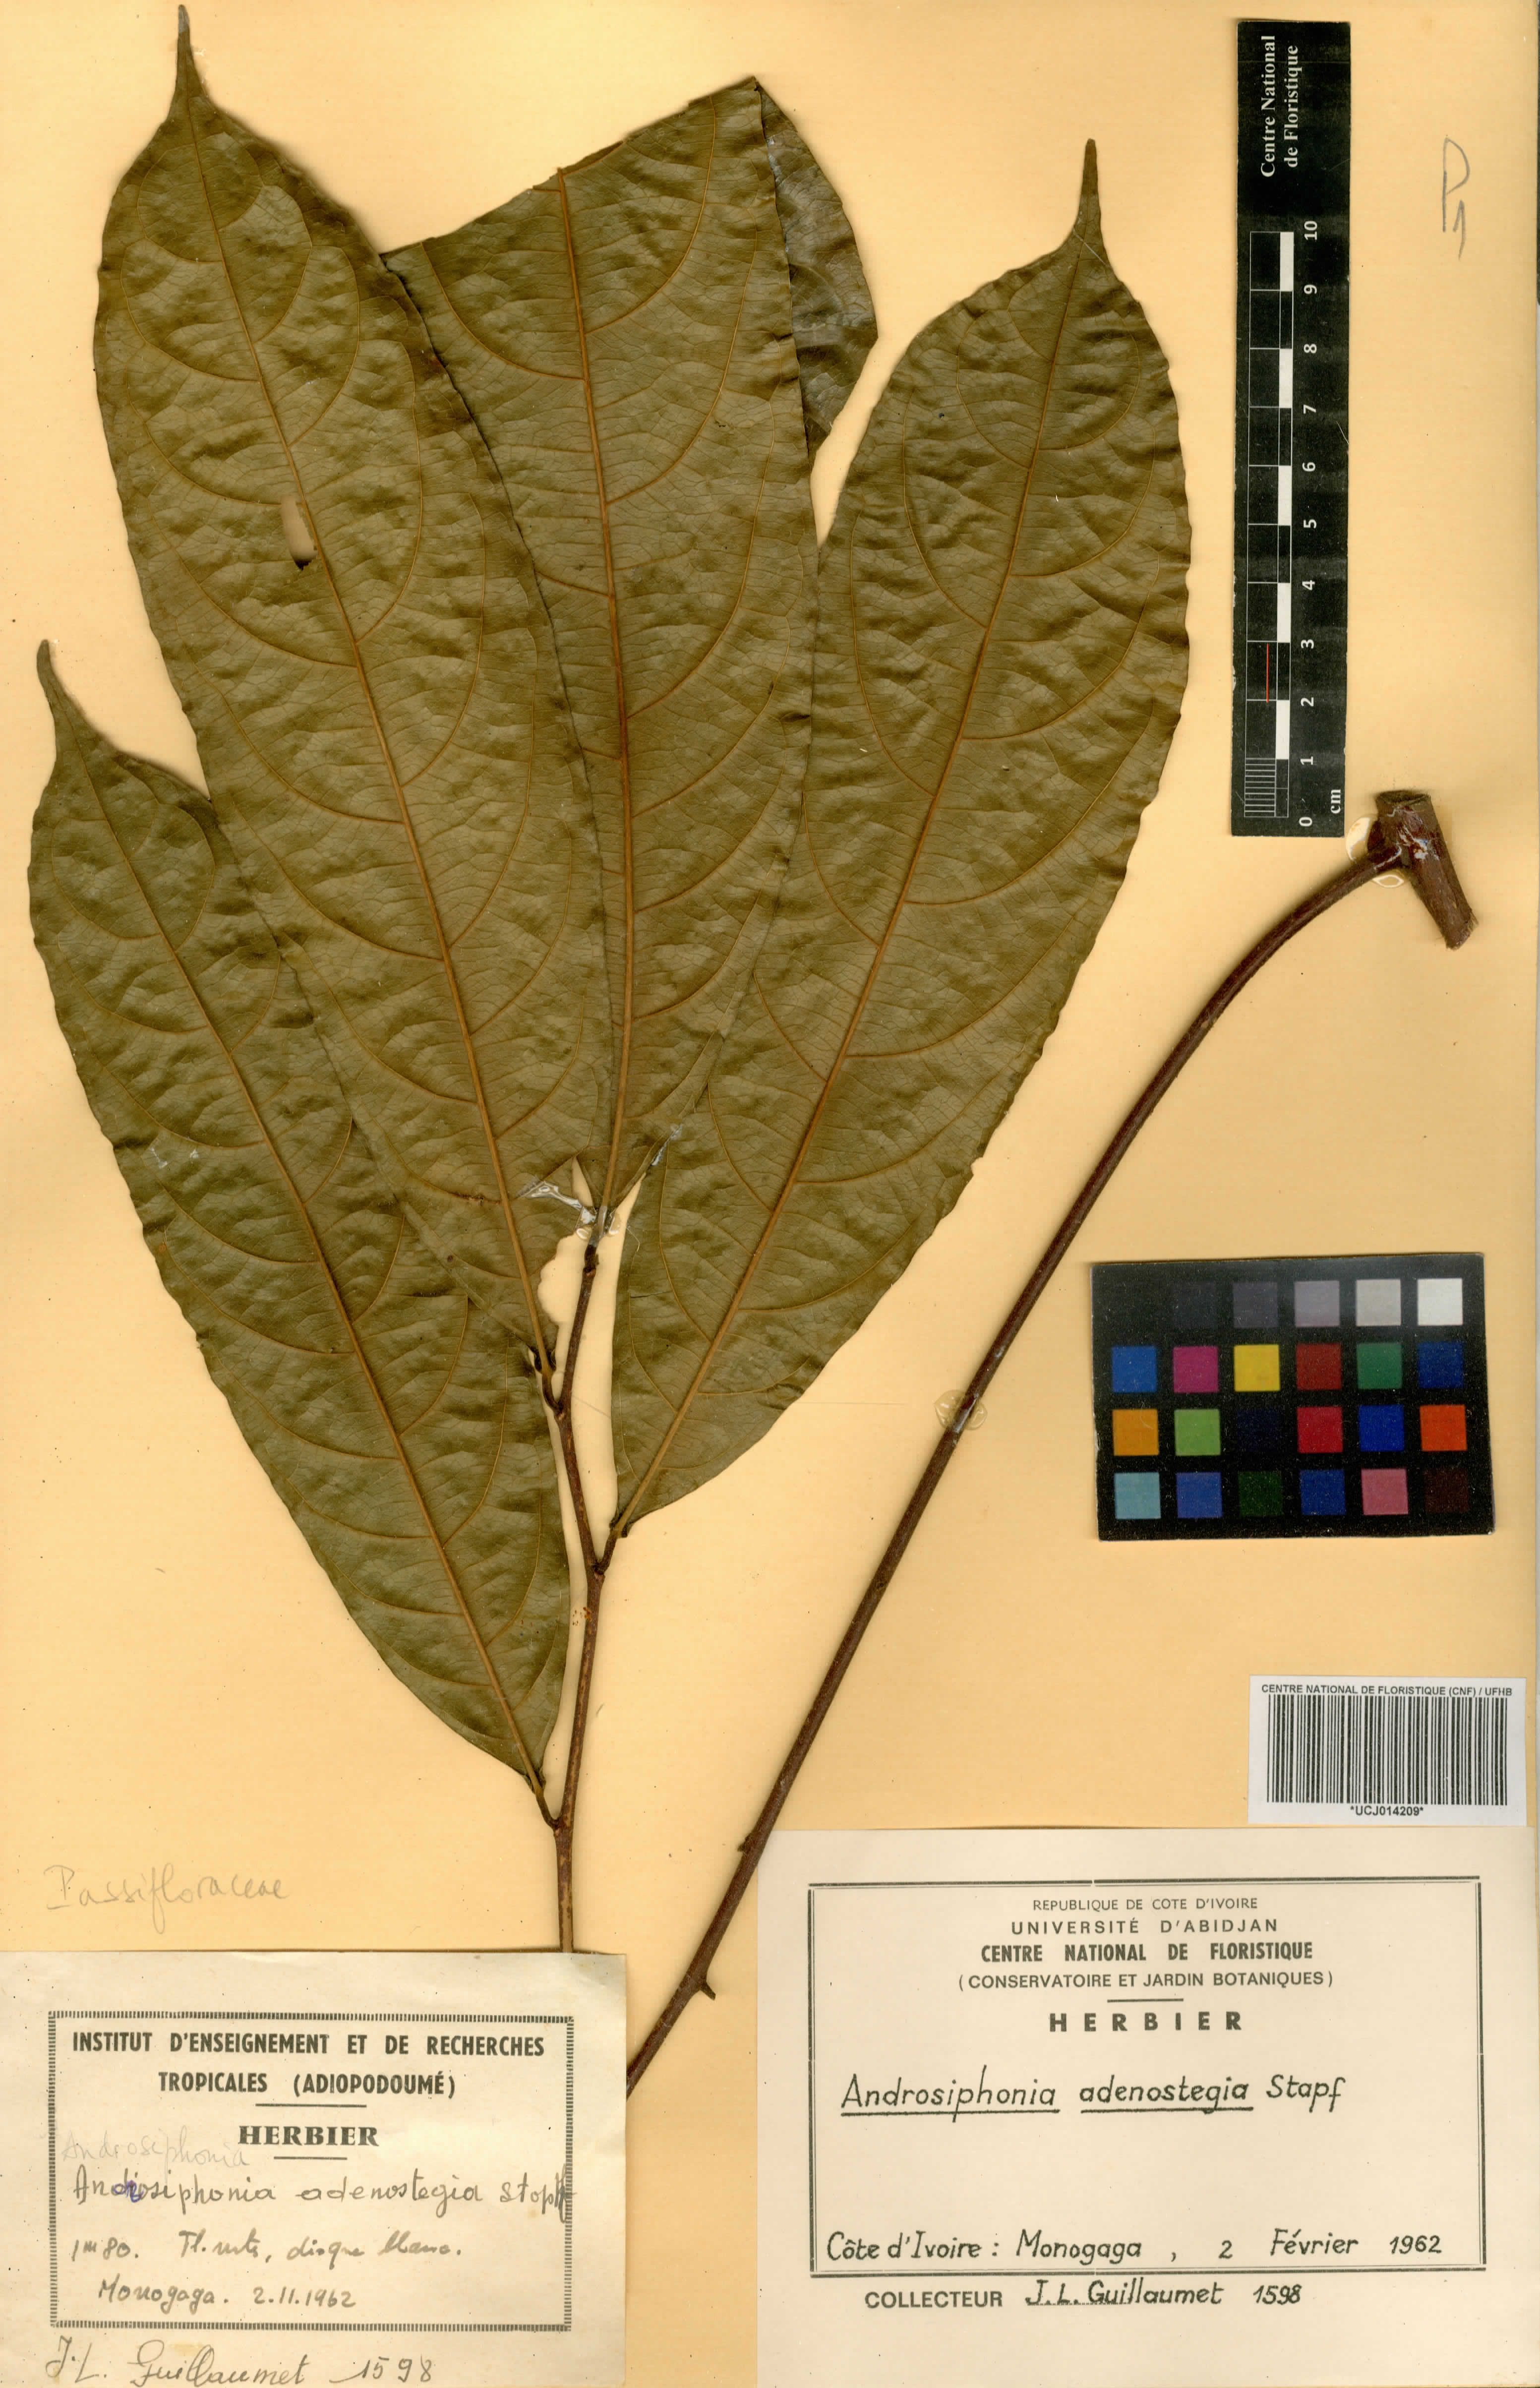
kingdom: Plantae
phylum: Tracheophyta
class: Magnoliopsida
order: Malpighiales
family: Passifloraceae
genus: Androsiphonia
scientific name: Androsiphonia adenostegia
